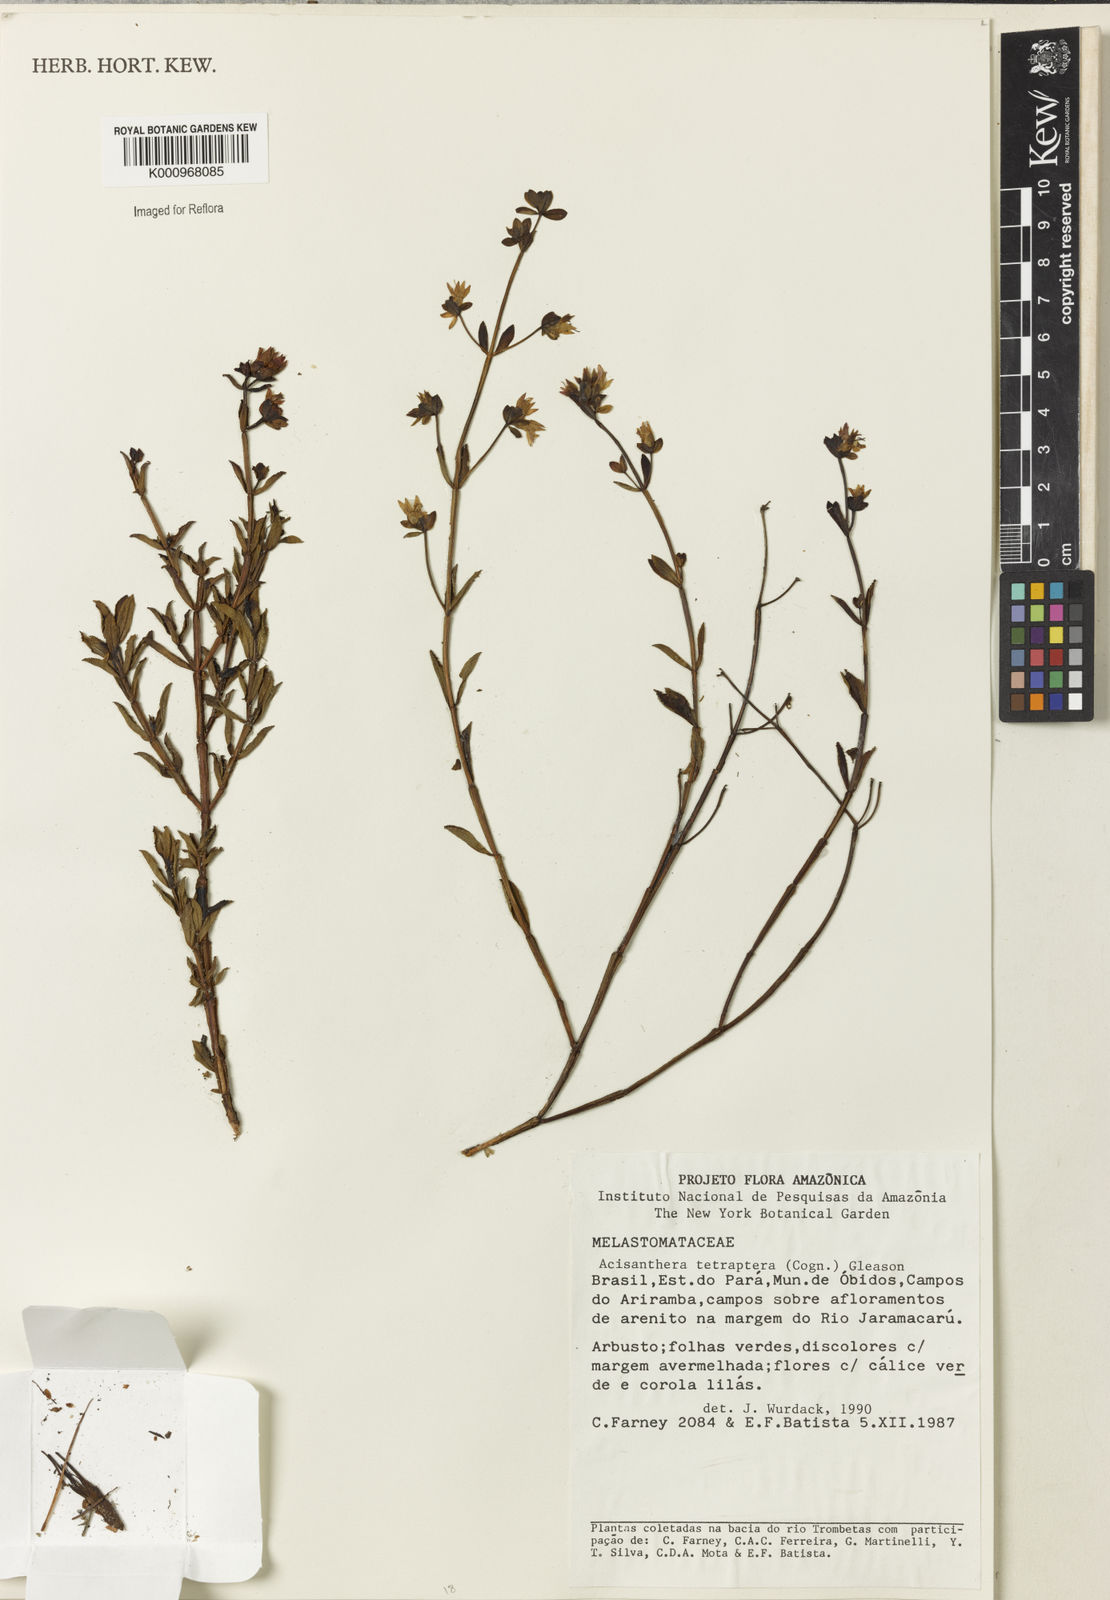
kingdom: Plantae
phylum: Tracheophyta
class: Magnoliopsida
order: Myrtales
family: Melastomataceae
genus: Rostranthera
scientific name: Rostranthera tetraptera
